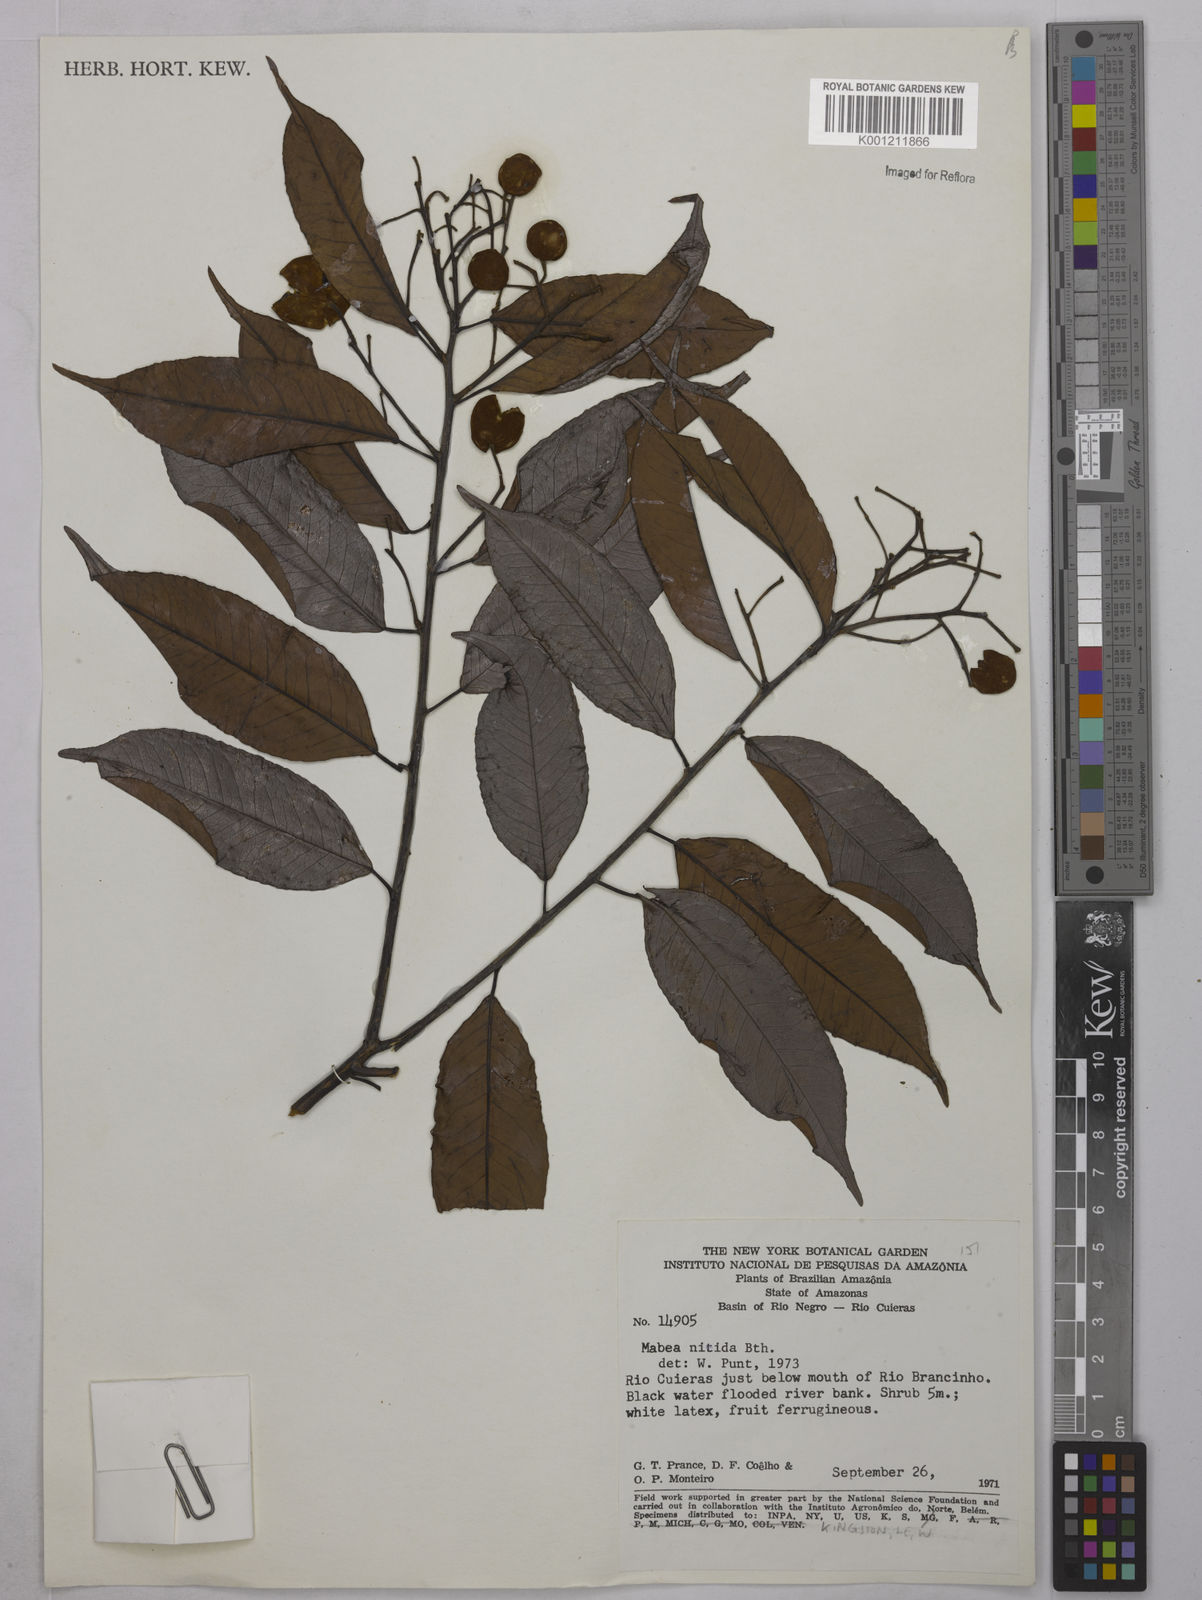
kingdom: Plantae
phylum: Tracheophyta
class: Magnoliopsida
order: Malpighiales
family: Euphorbiaceae
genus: Mabea
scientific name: Mabea nitida
